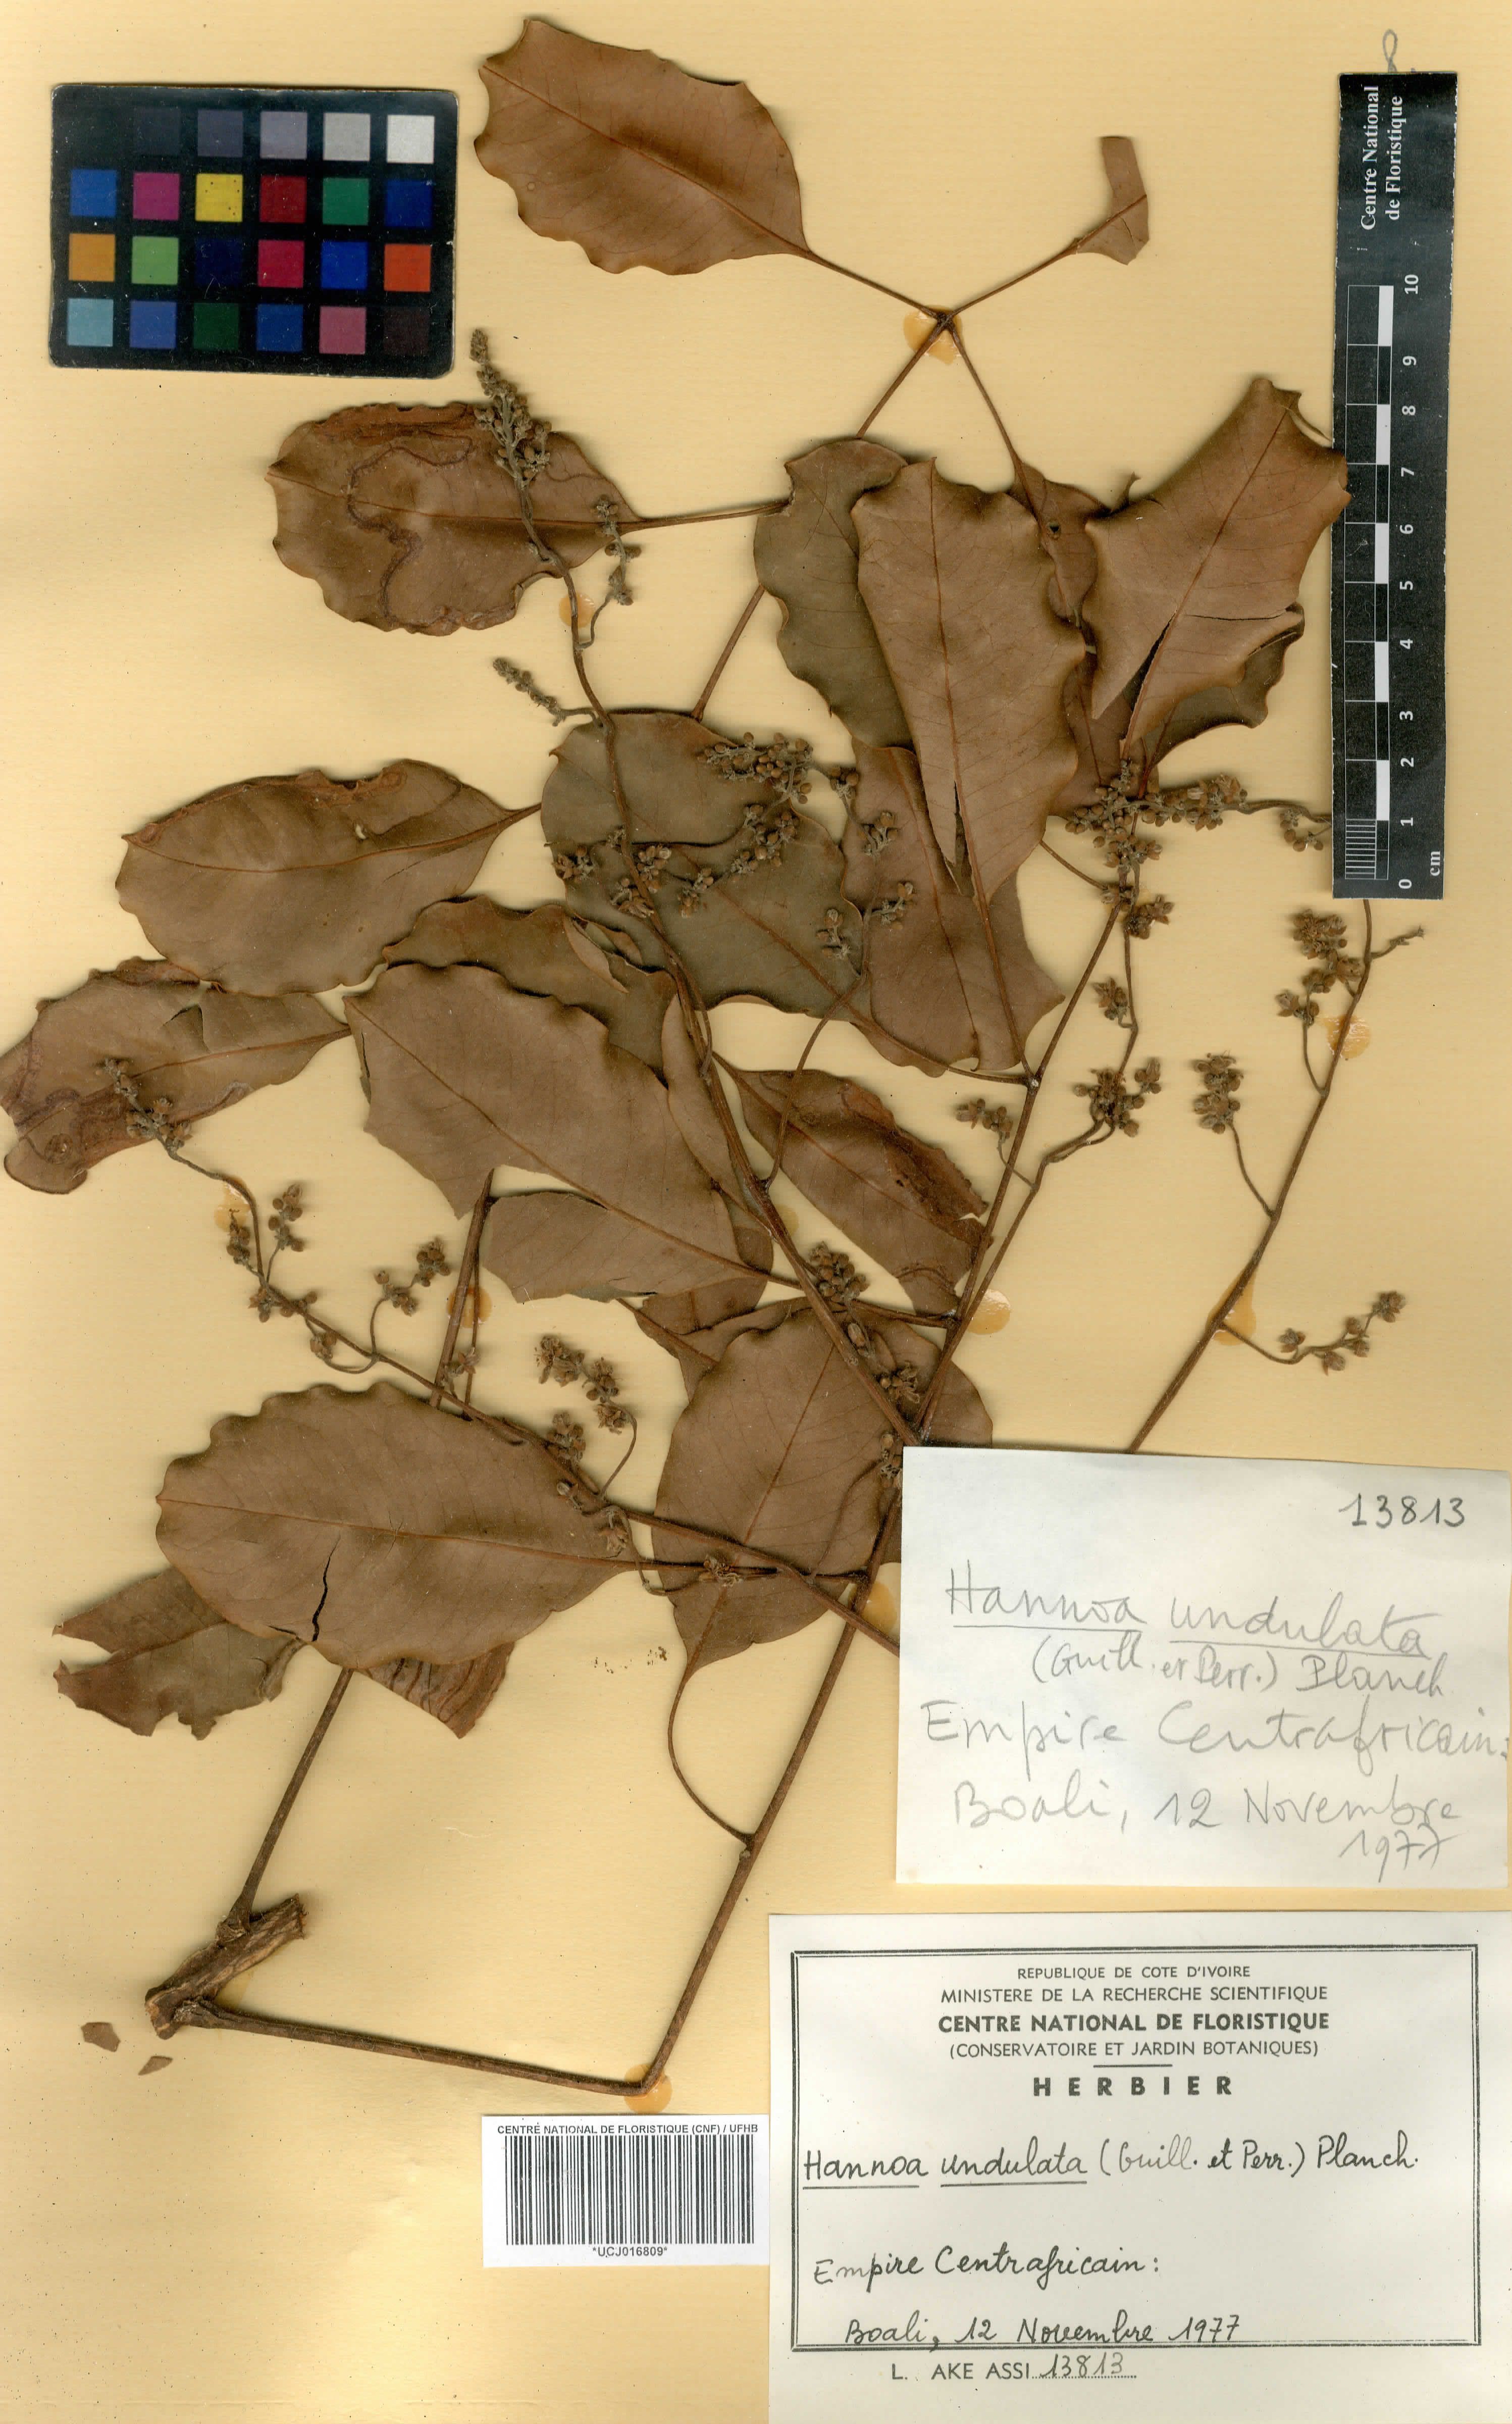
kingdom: Plantae
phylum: Tracheophyta
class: Magnoliopsida
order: Sapindales
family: Simaroubaceae
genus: Odyendyea
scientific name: Odyendyea klaineana
